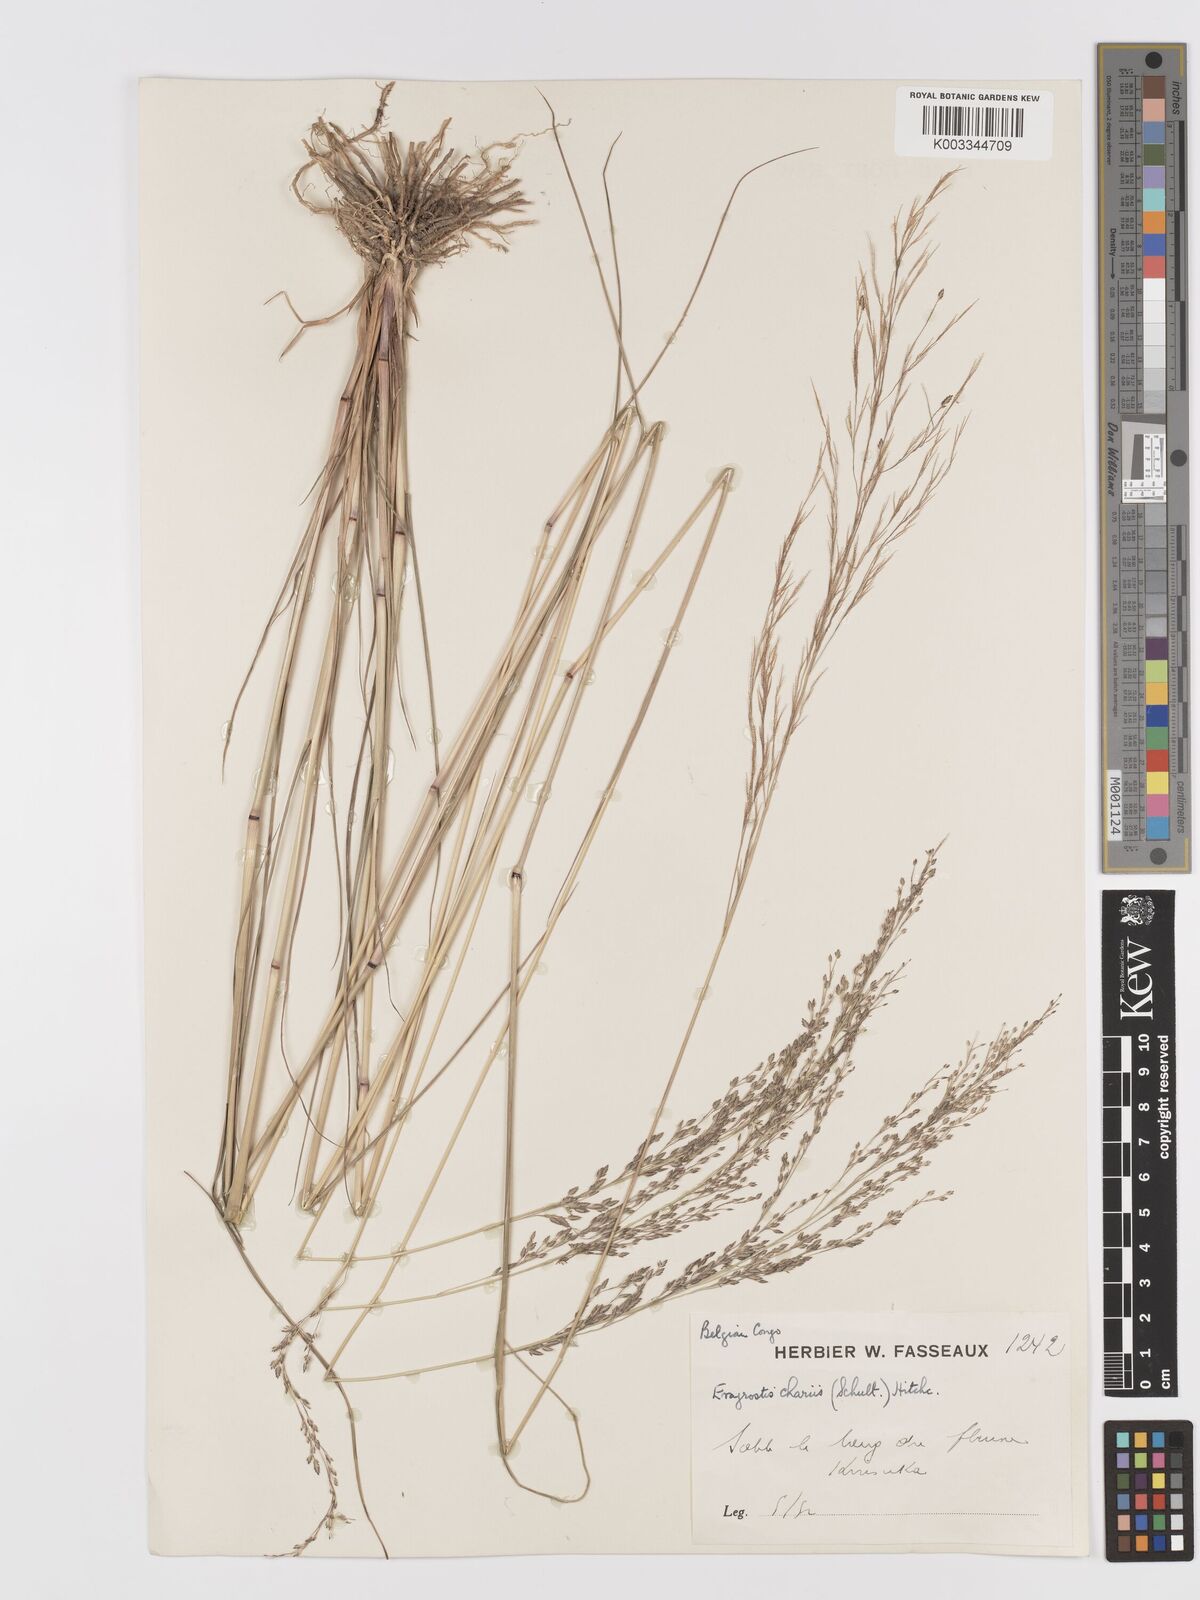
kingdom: Plantae
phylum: Tracheophyta
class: Liliopsida
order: Poales
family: Poaceae
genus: Eragrostis
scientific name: Eragrostis atrovirens
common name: Thalia lovegrass
